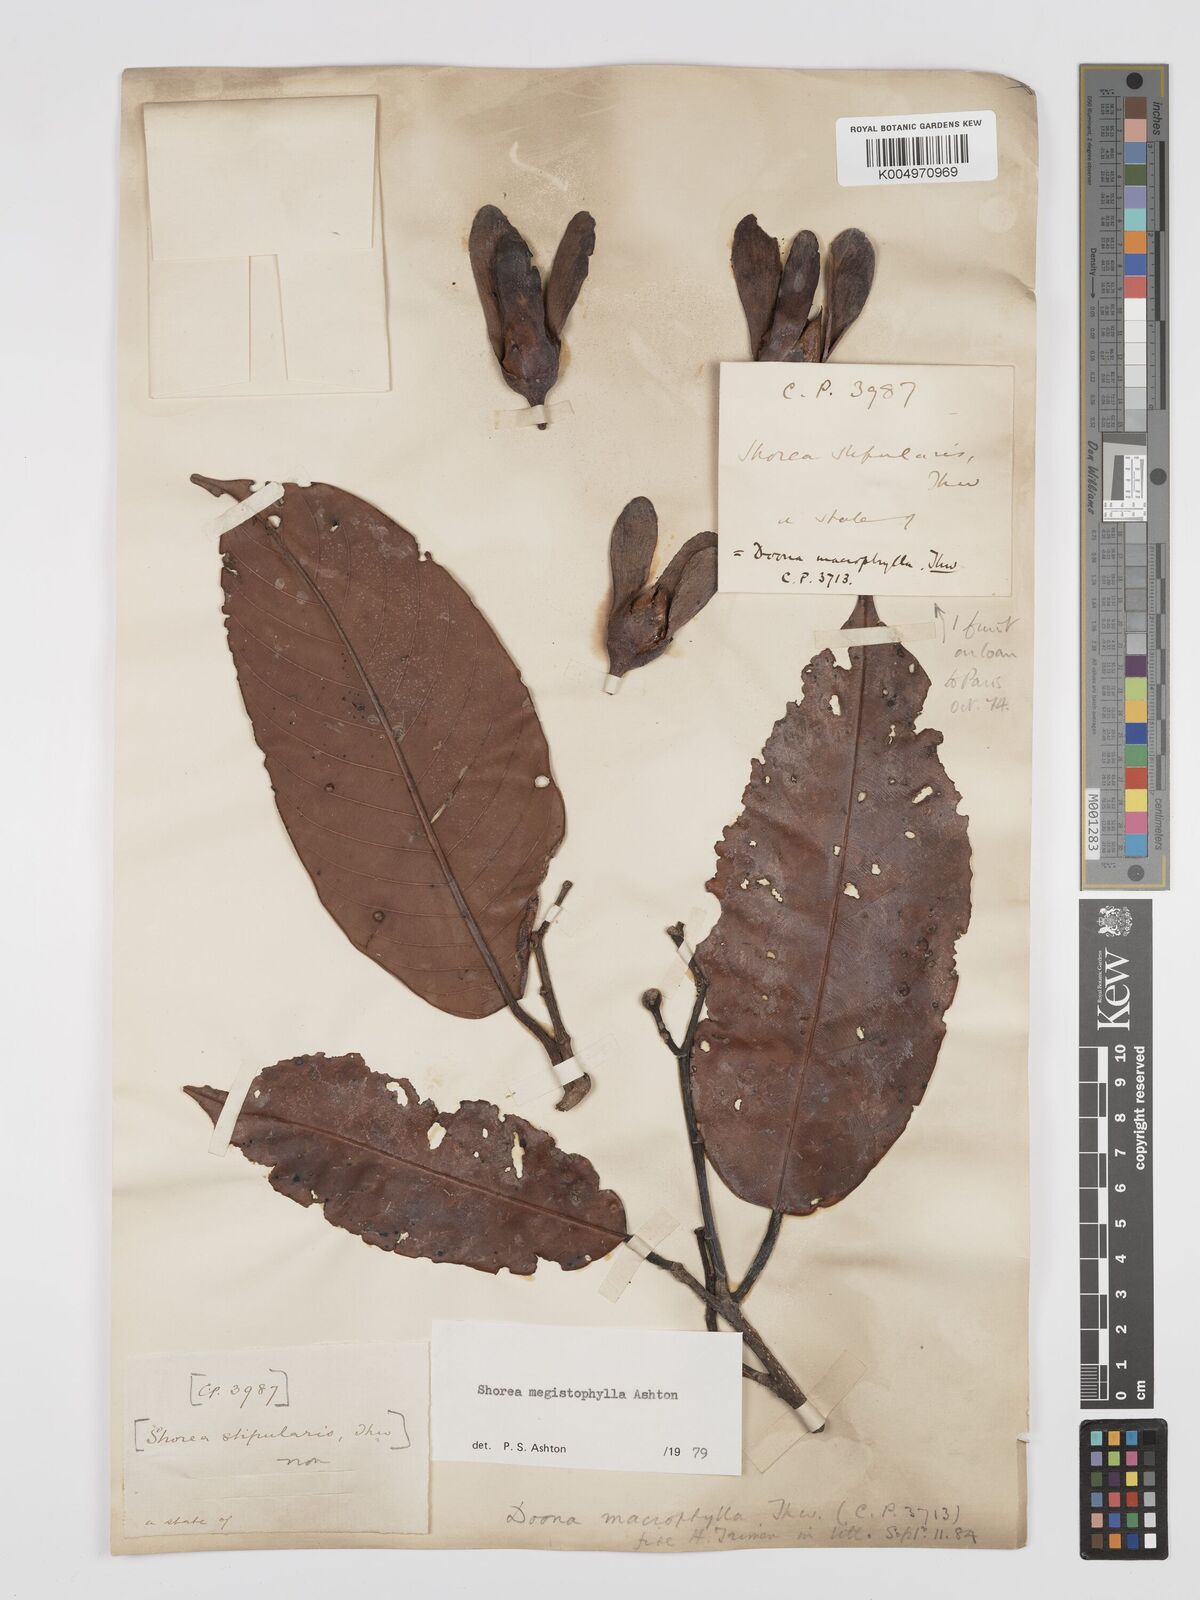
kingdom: Plantae
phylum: Tracheophyta
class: Magnoliopsida
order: Malvales
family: Dipterocarpaceae
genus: Doona
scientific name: Doona macrophylla
